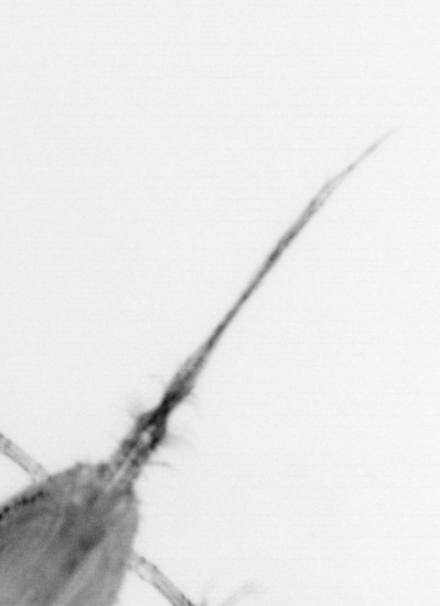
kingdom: Animalia
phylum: Chordata
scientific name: Chordata
